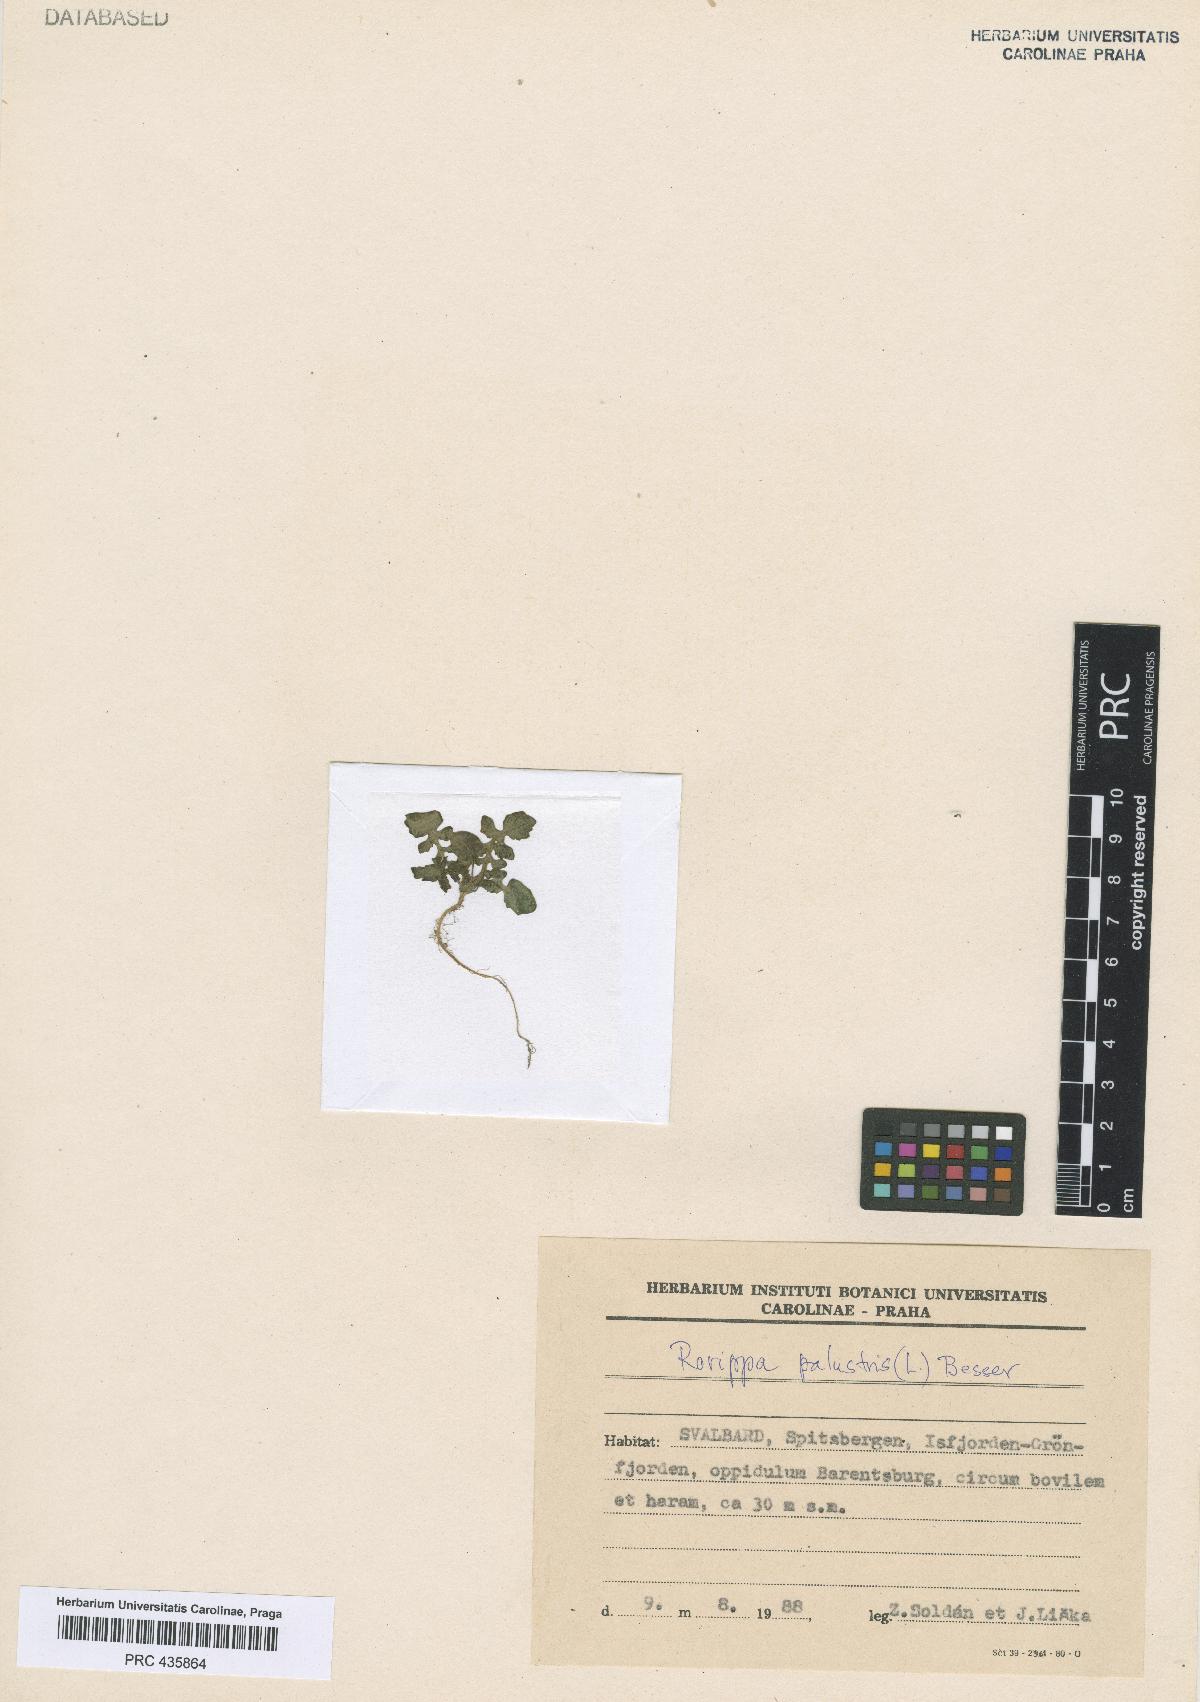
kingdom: Plantae
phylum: Tracheophyta
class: Magnoliopsida
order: Brassicales
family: Brassicaceae
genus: Rorippa
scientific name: Rorippa palustris
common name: Marsh yellow-cress
